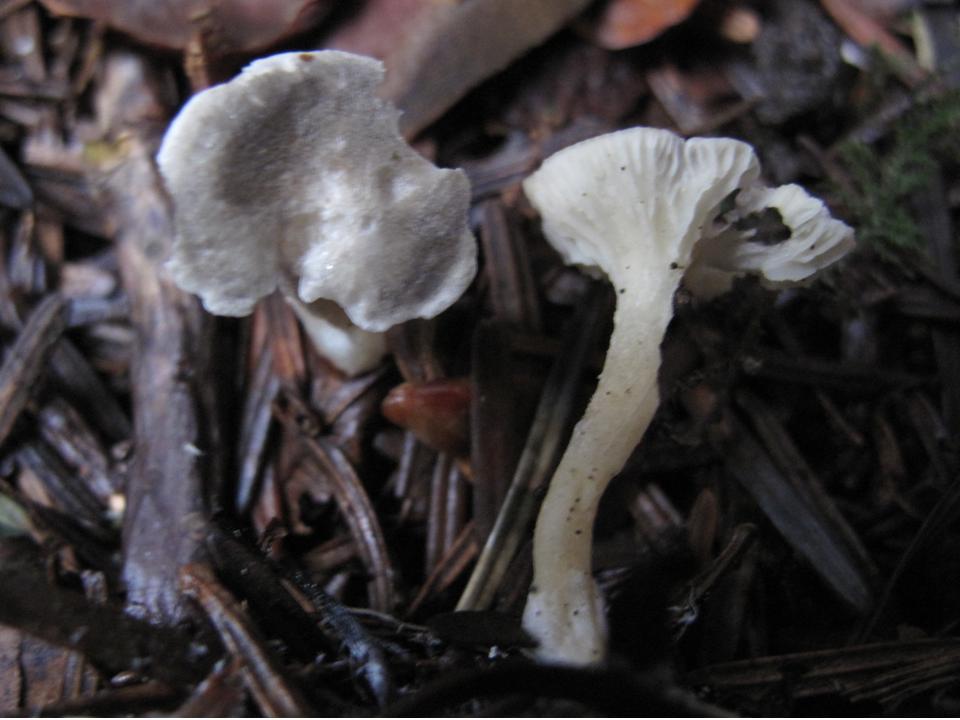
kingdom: Fungi
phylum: Basidiomycota
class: Agaricomycetes
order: Agaricales
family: Hygrophoraceae
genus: Spodocybe
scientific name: Spodocybe trulliformis
